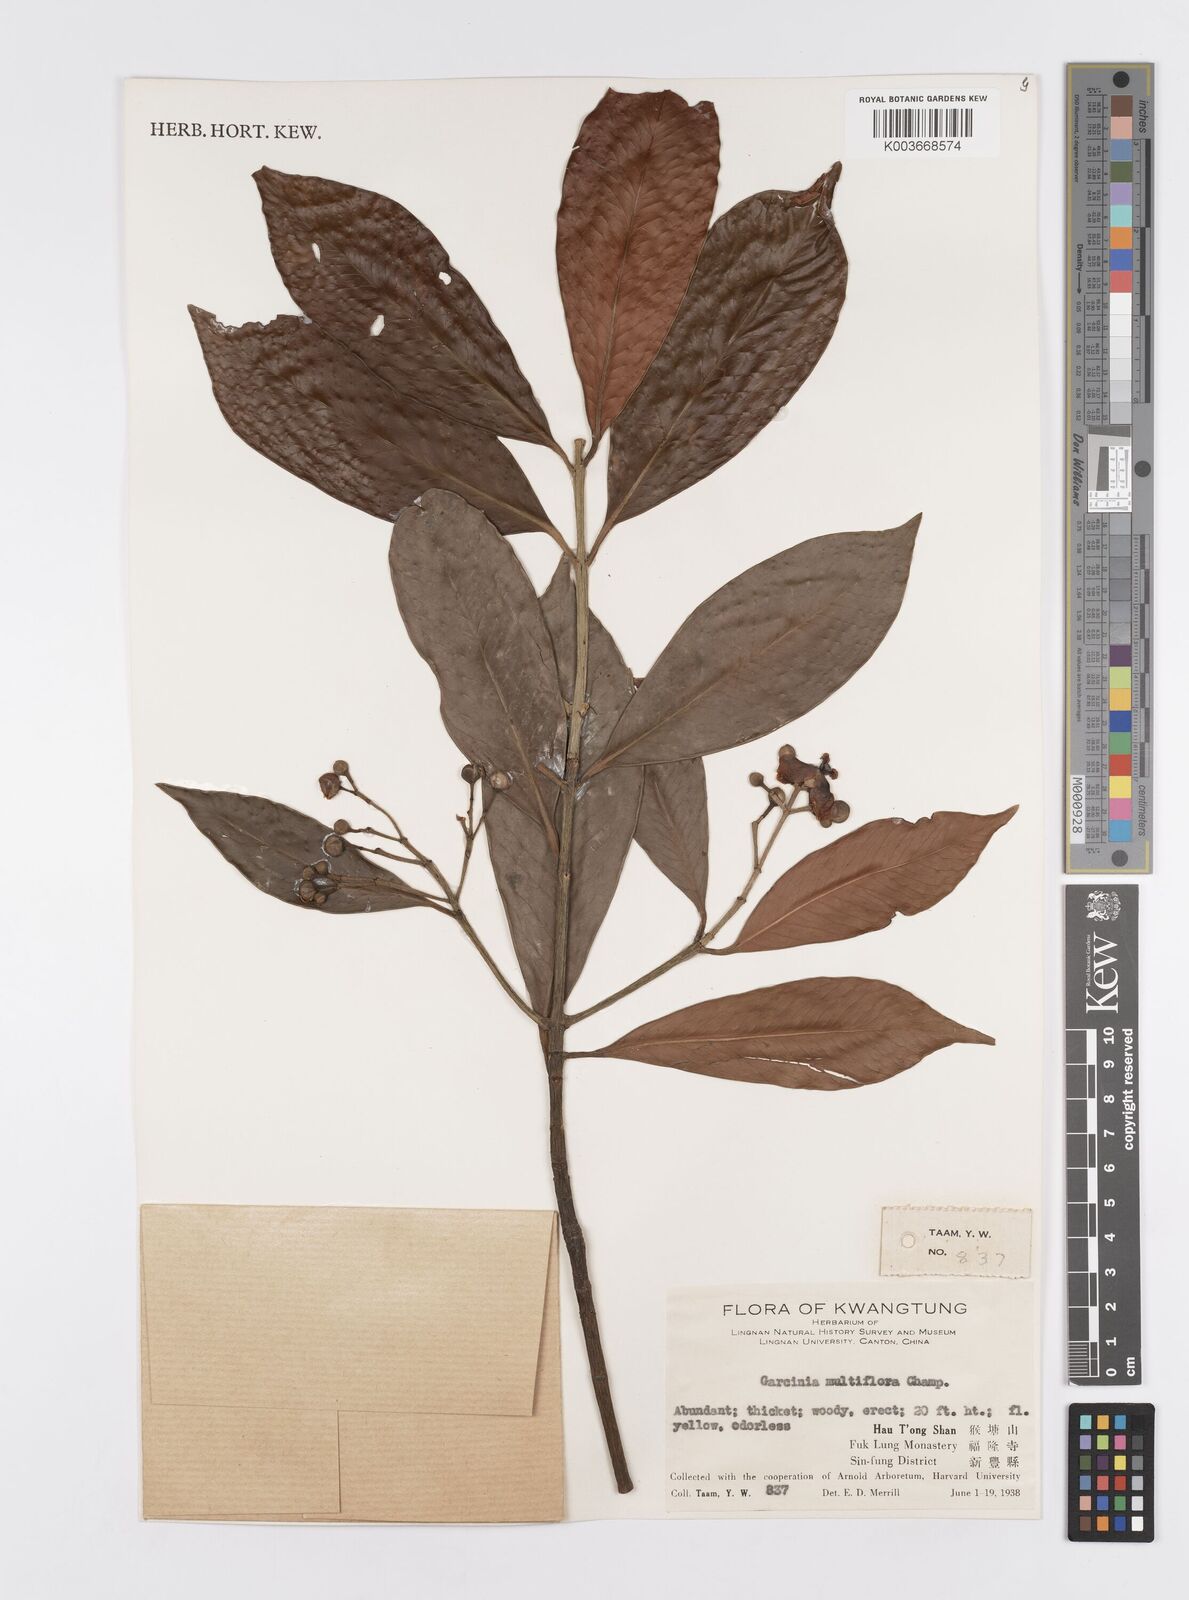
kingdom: Plantae
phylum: Tracheophyta
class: Magnoliopsida
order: Malpighiales
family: Clusiaceae
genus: Garcinia
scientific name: Garcinia multiflora
